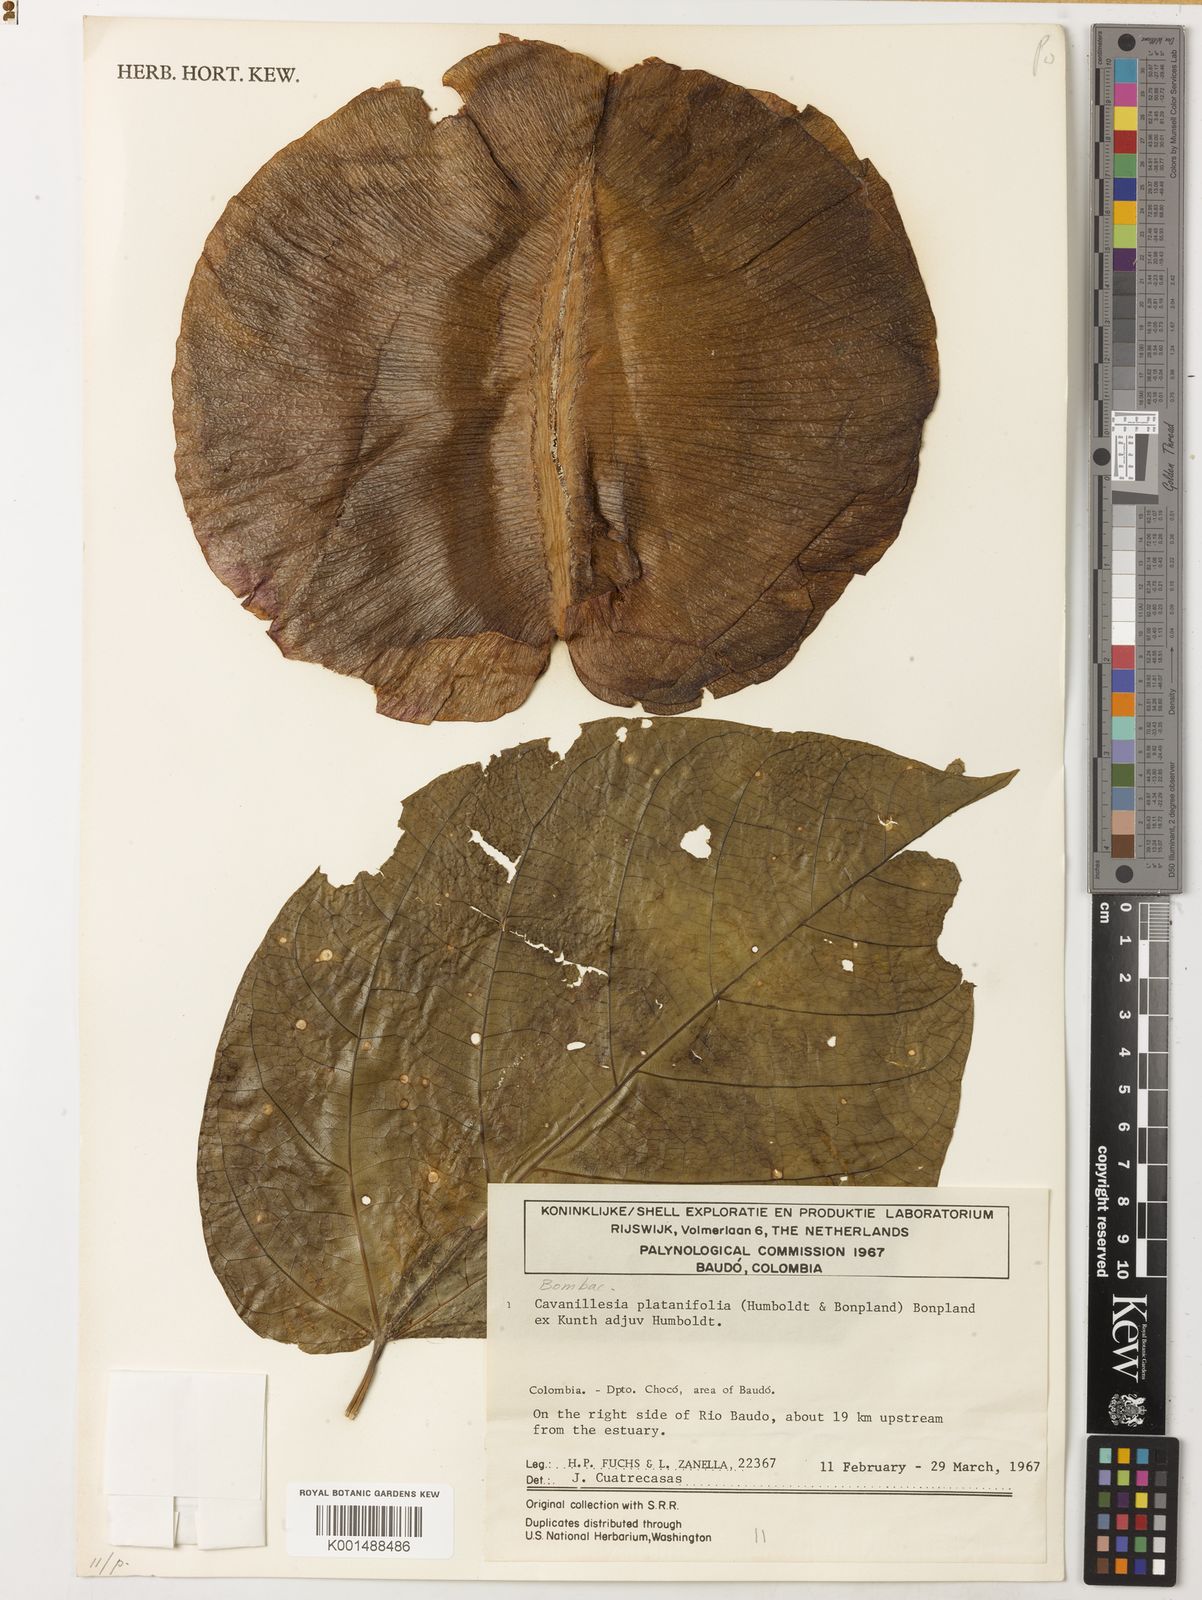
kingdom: Plantae
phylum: Tracheophyta
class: Magnoliopsida
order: Malvales
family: Malvaceae
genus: Cavanillesia
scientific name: Cavanillesia platanifolia
